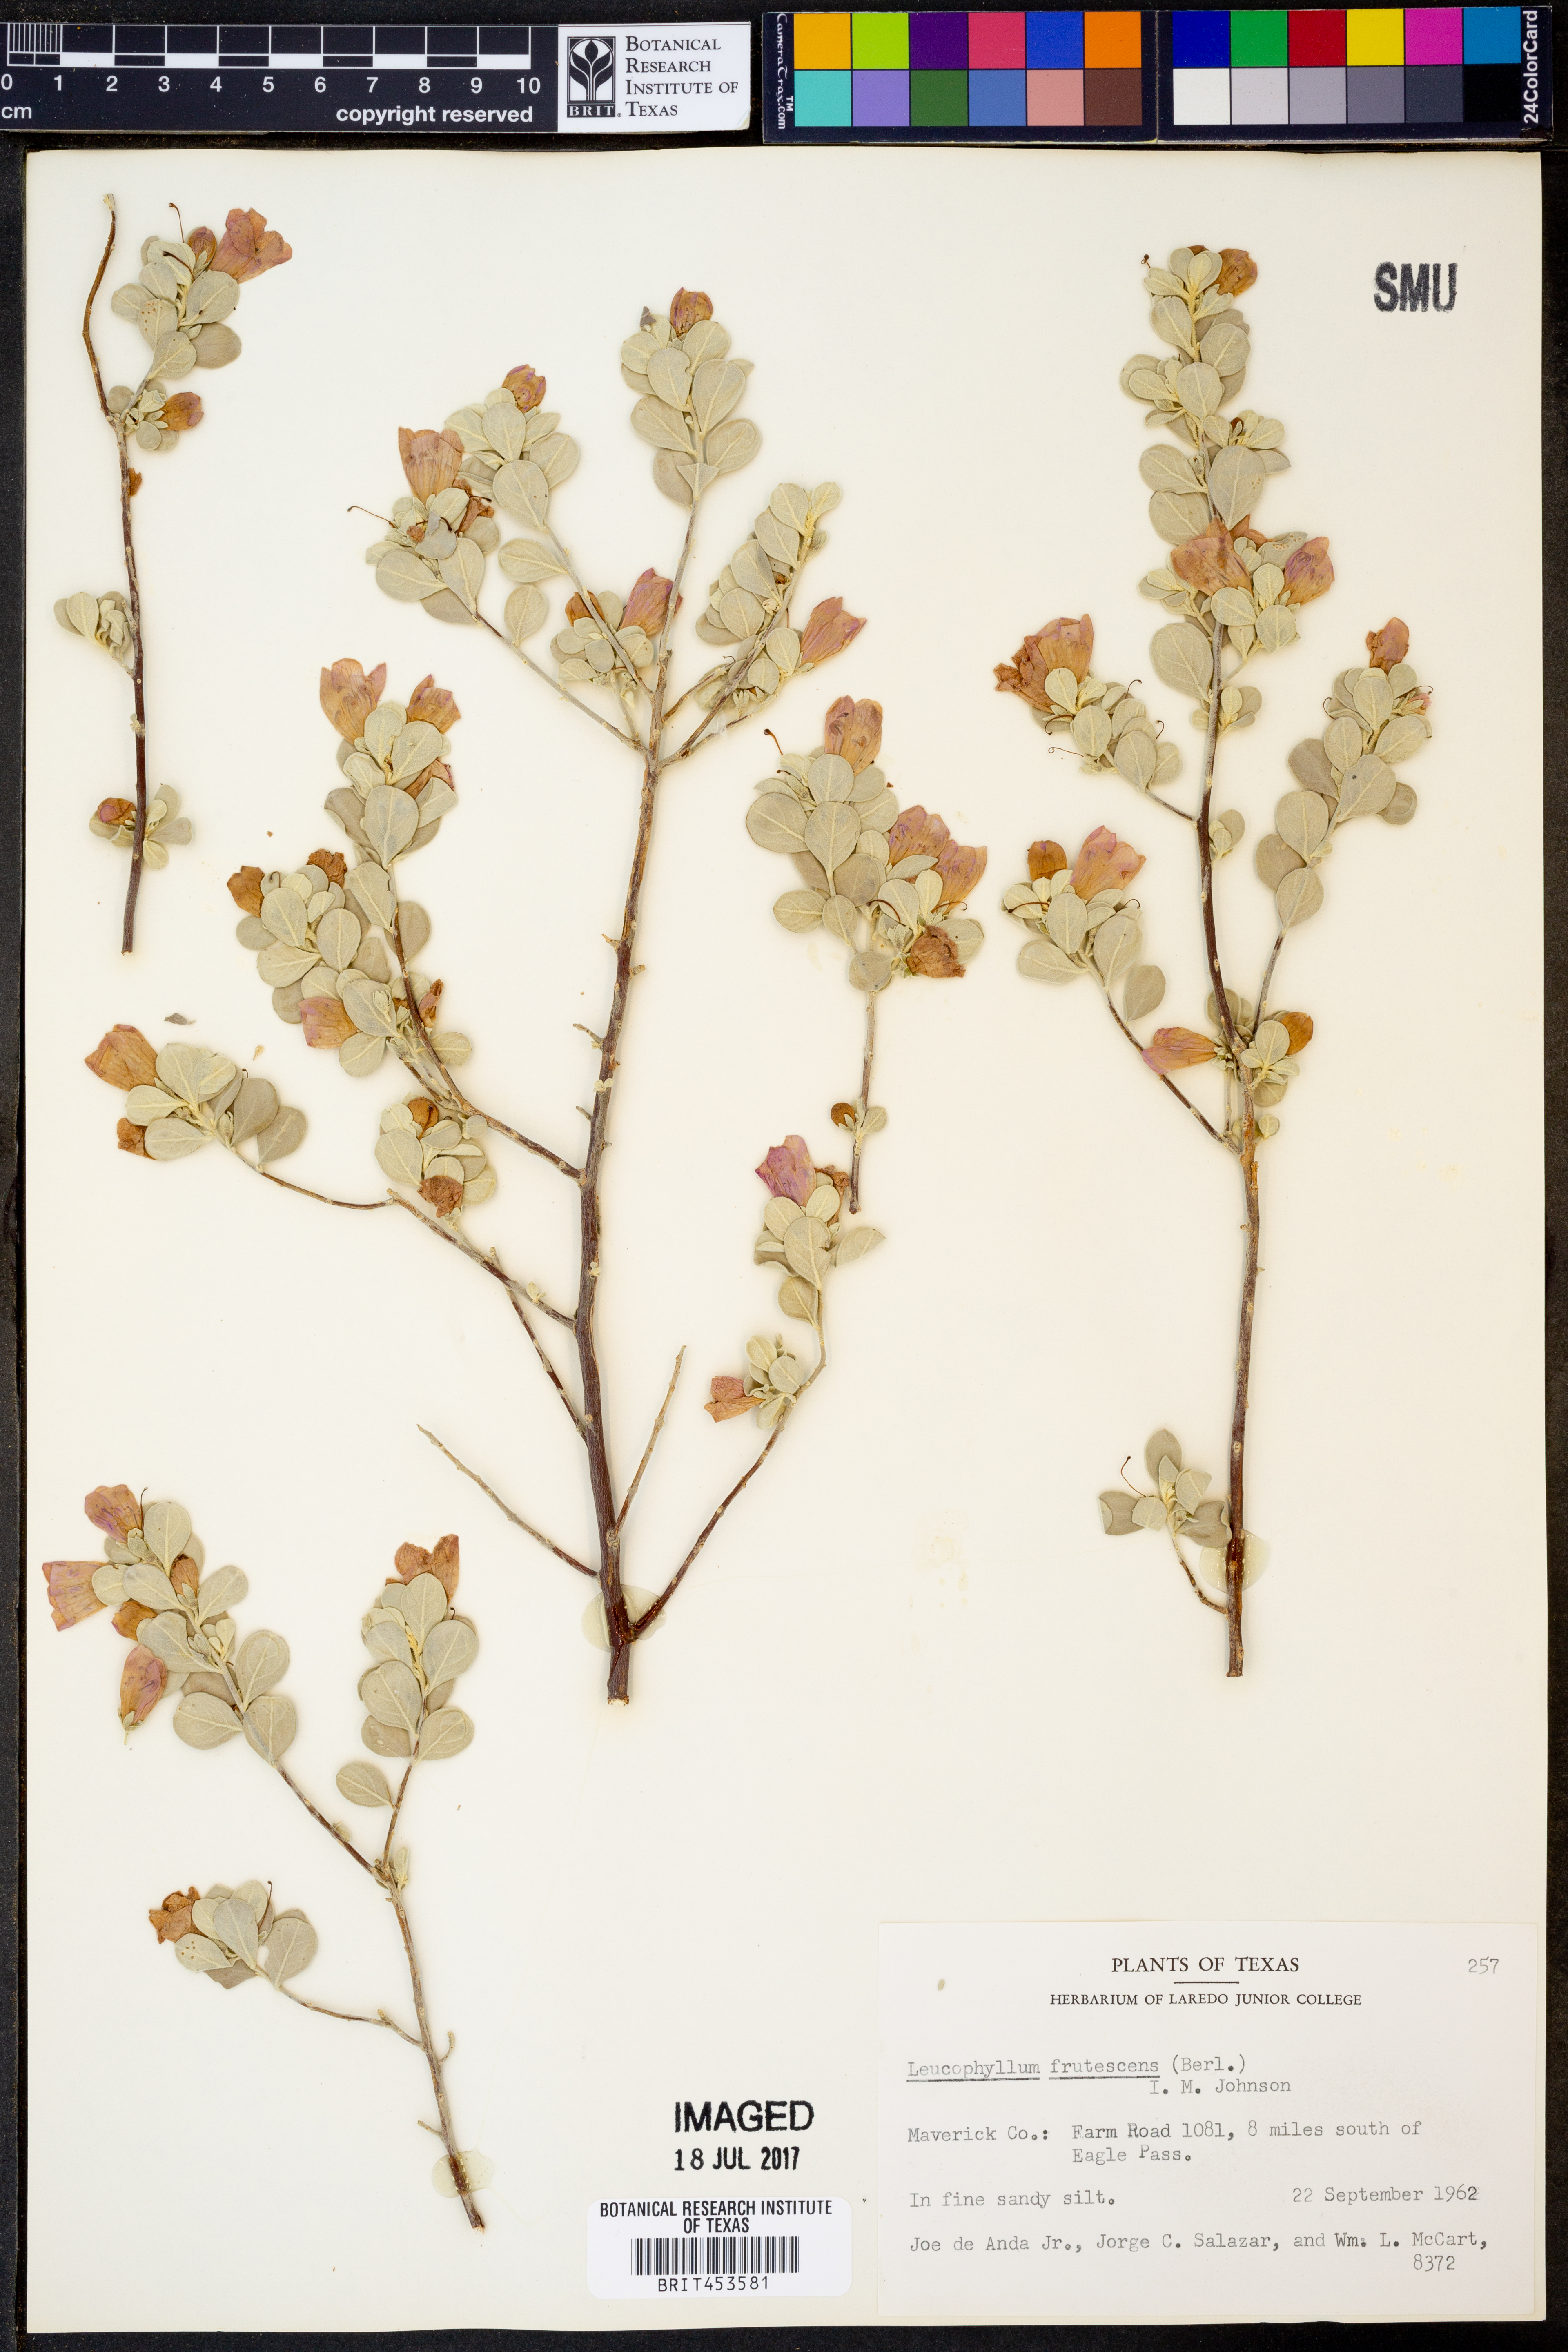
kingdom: Plantae
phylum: Tracheophyta
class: Magnoliopsida
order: Lamiales
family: Scrophulariaceae
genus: Leucophyllum
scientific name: Leucophyllum frutescens
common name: Texas silverleaf
